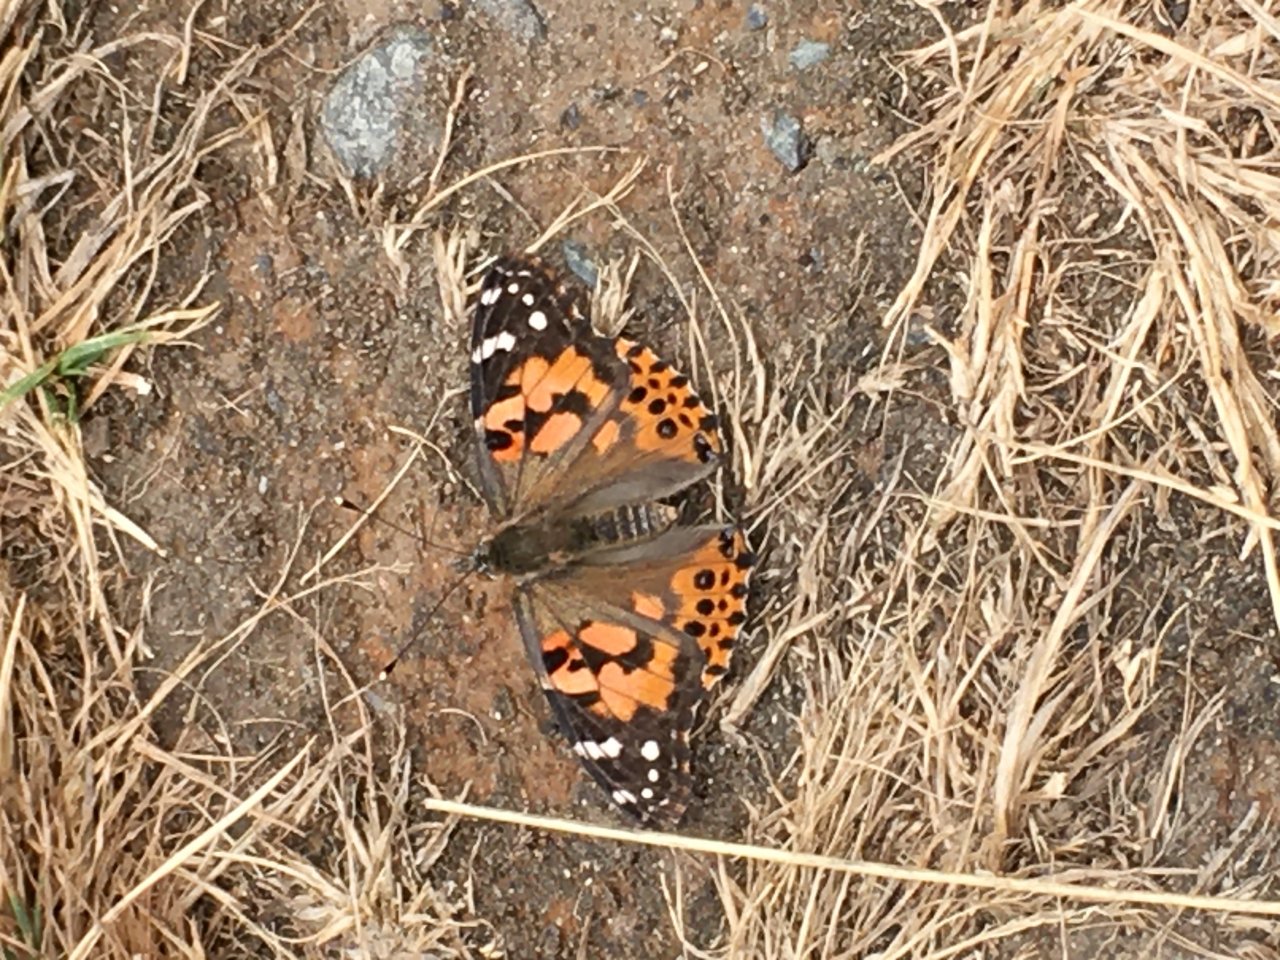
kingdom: Animalia
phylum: Arthropoda
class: Insecta
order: Lepidoptera
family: Nymphalidae
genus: Vanessa
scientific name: Vanessa cardui
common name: Painted Lady
